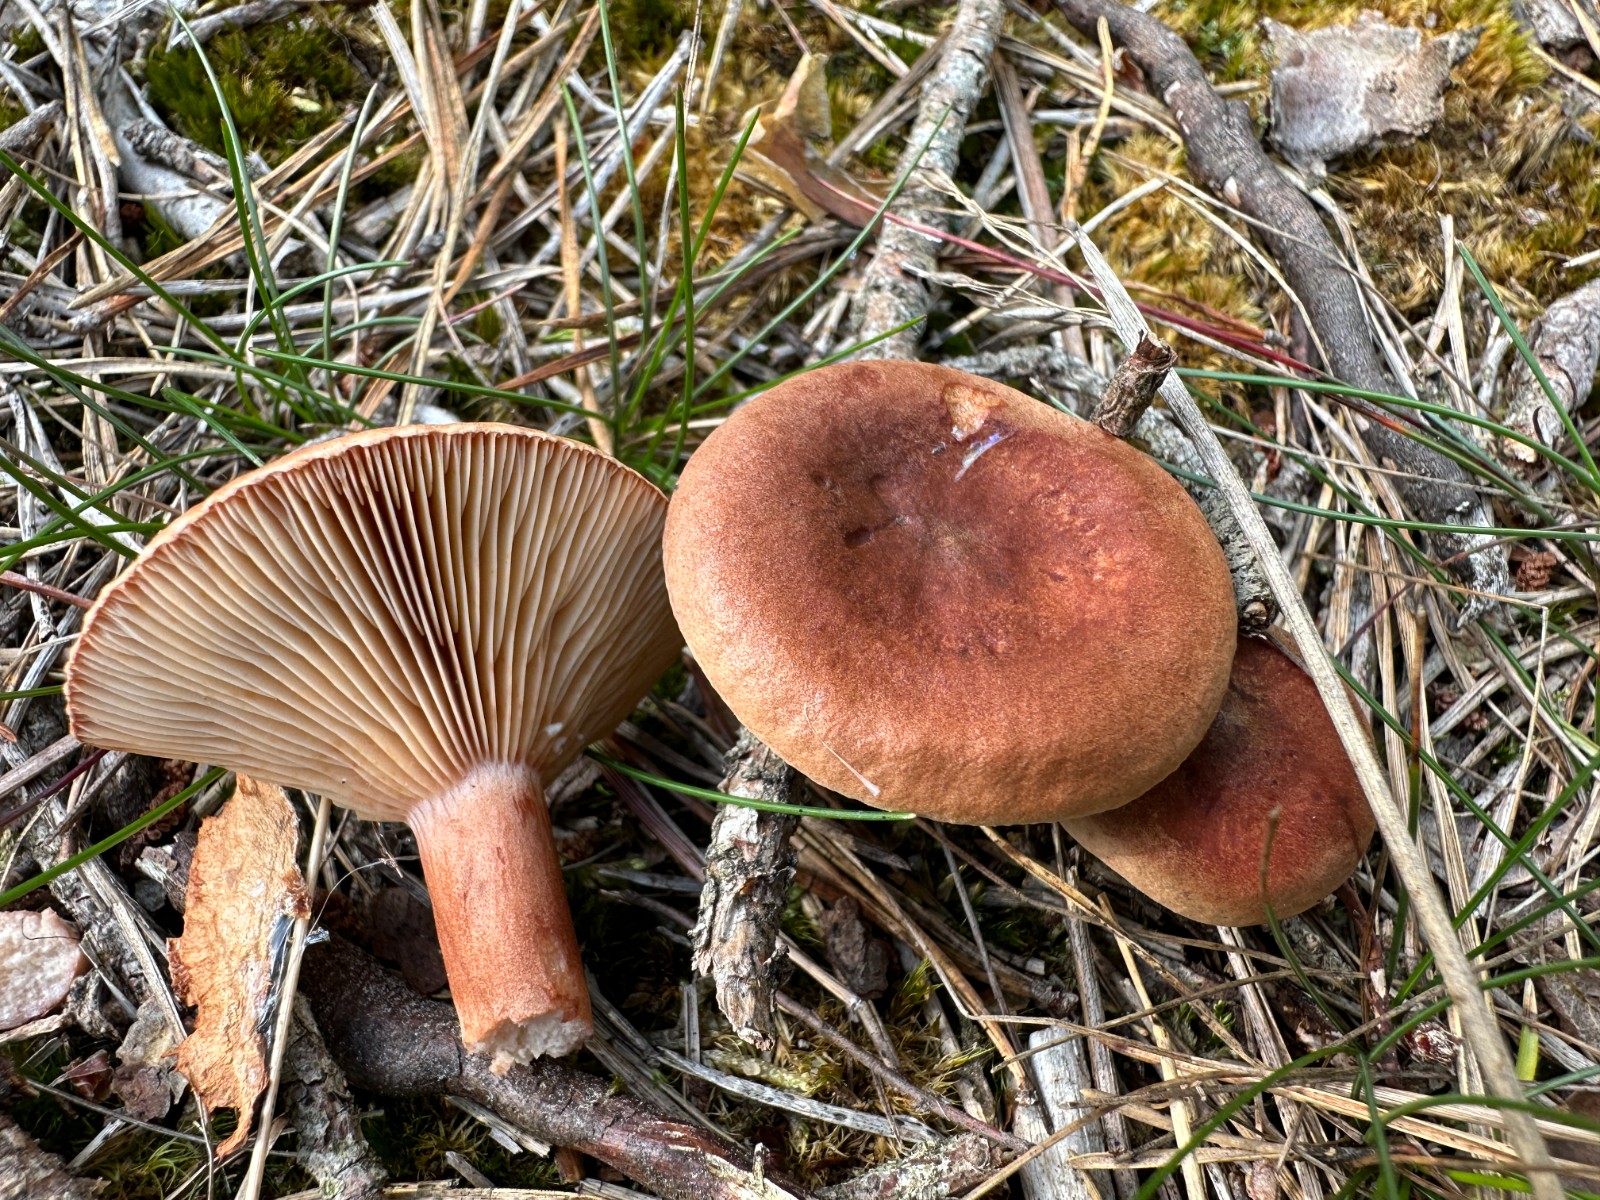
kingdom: Fungi
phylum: Basidiomycota
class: Agaricomycetes
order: Russulales
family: Russulaceae
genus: Lactarius
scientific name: Lactarius rufus
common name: rødbrun mælkehat
